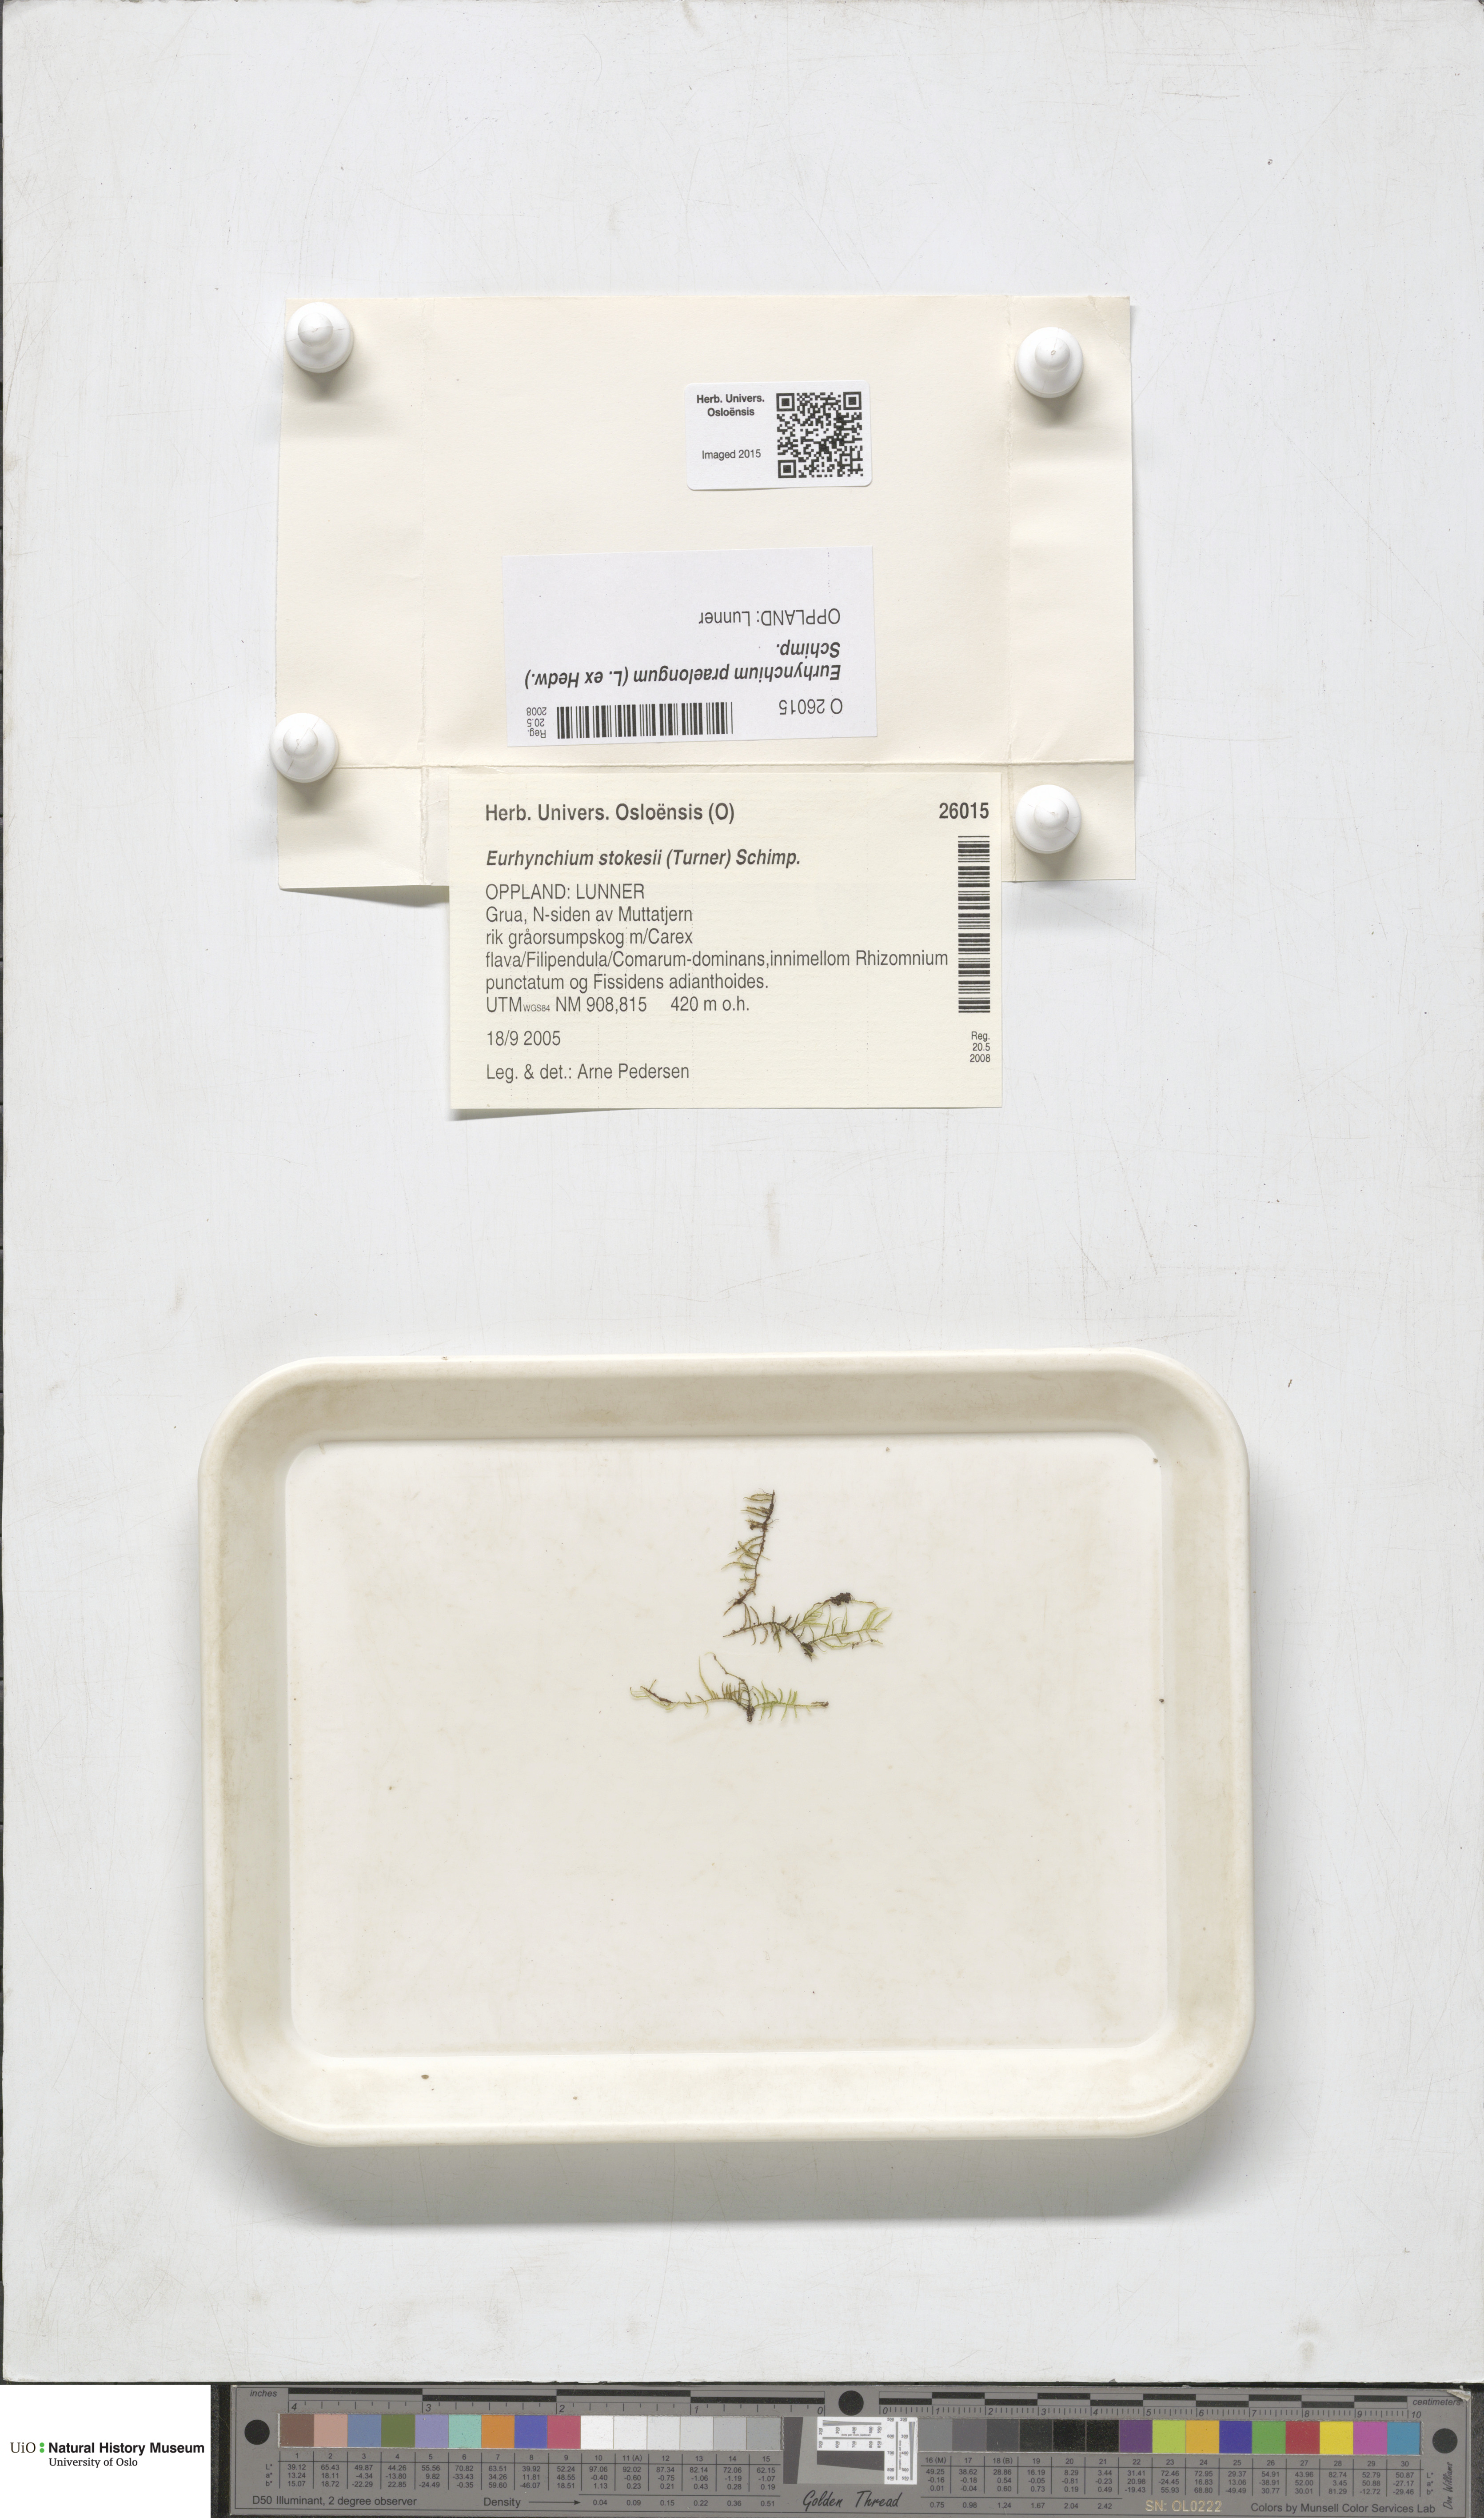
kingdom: Plantae
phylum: Bryophyta
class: Bryopsida
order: Hypnales
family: Brachytheciaceae
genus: Kindbergia
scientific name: Kindbergia praelonga
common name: Slender beaked moss
